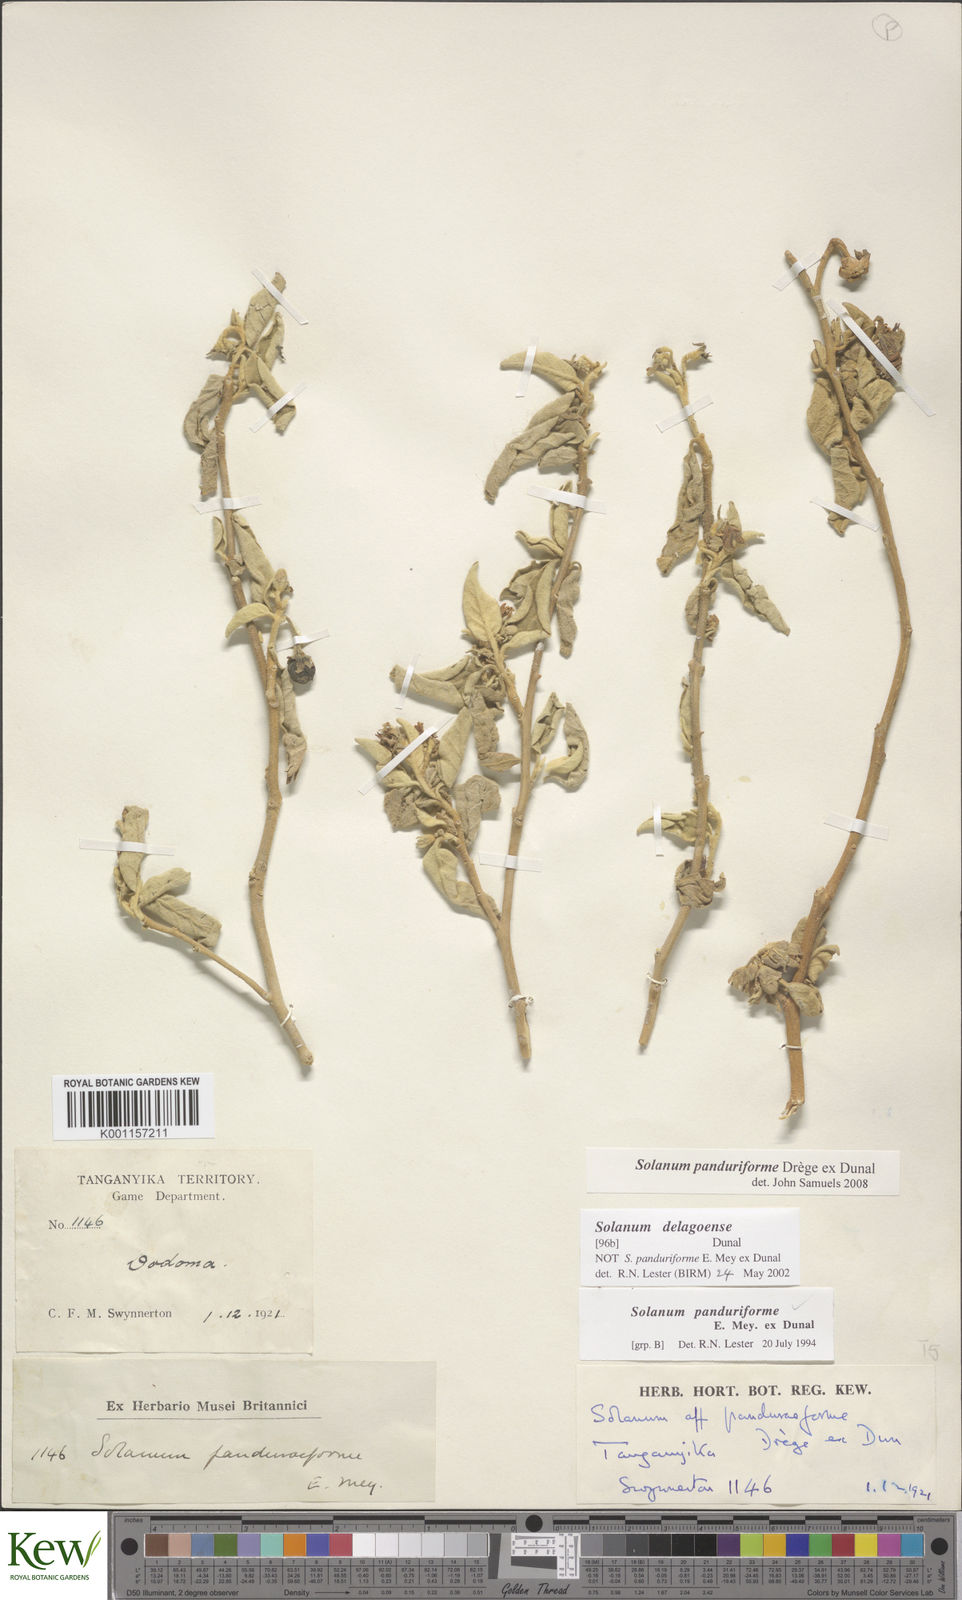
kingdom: Plantae
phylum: Tracheophyta
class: Magnoliopsida
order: Solanales
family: Solanaceae
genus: Solanum
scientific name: Solanum campylacanthum
